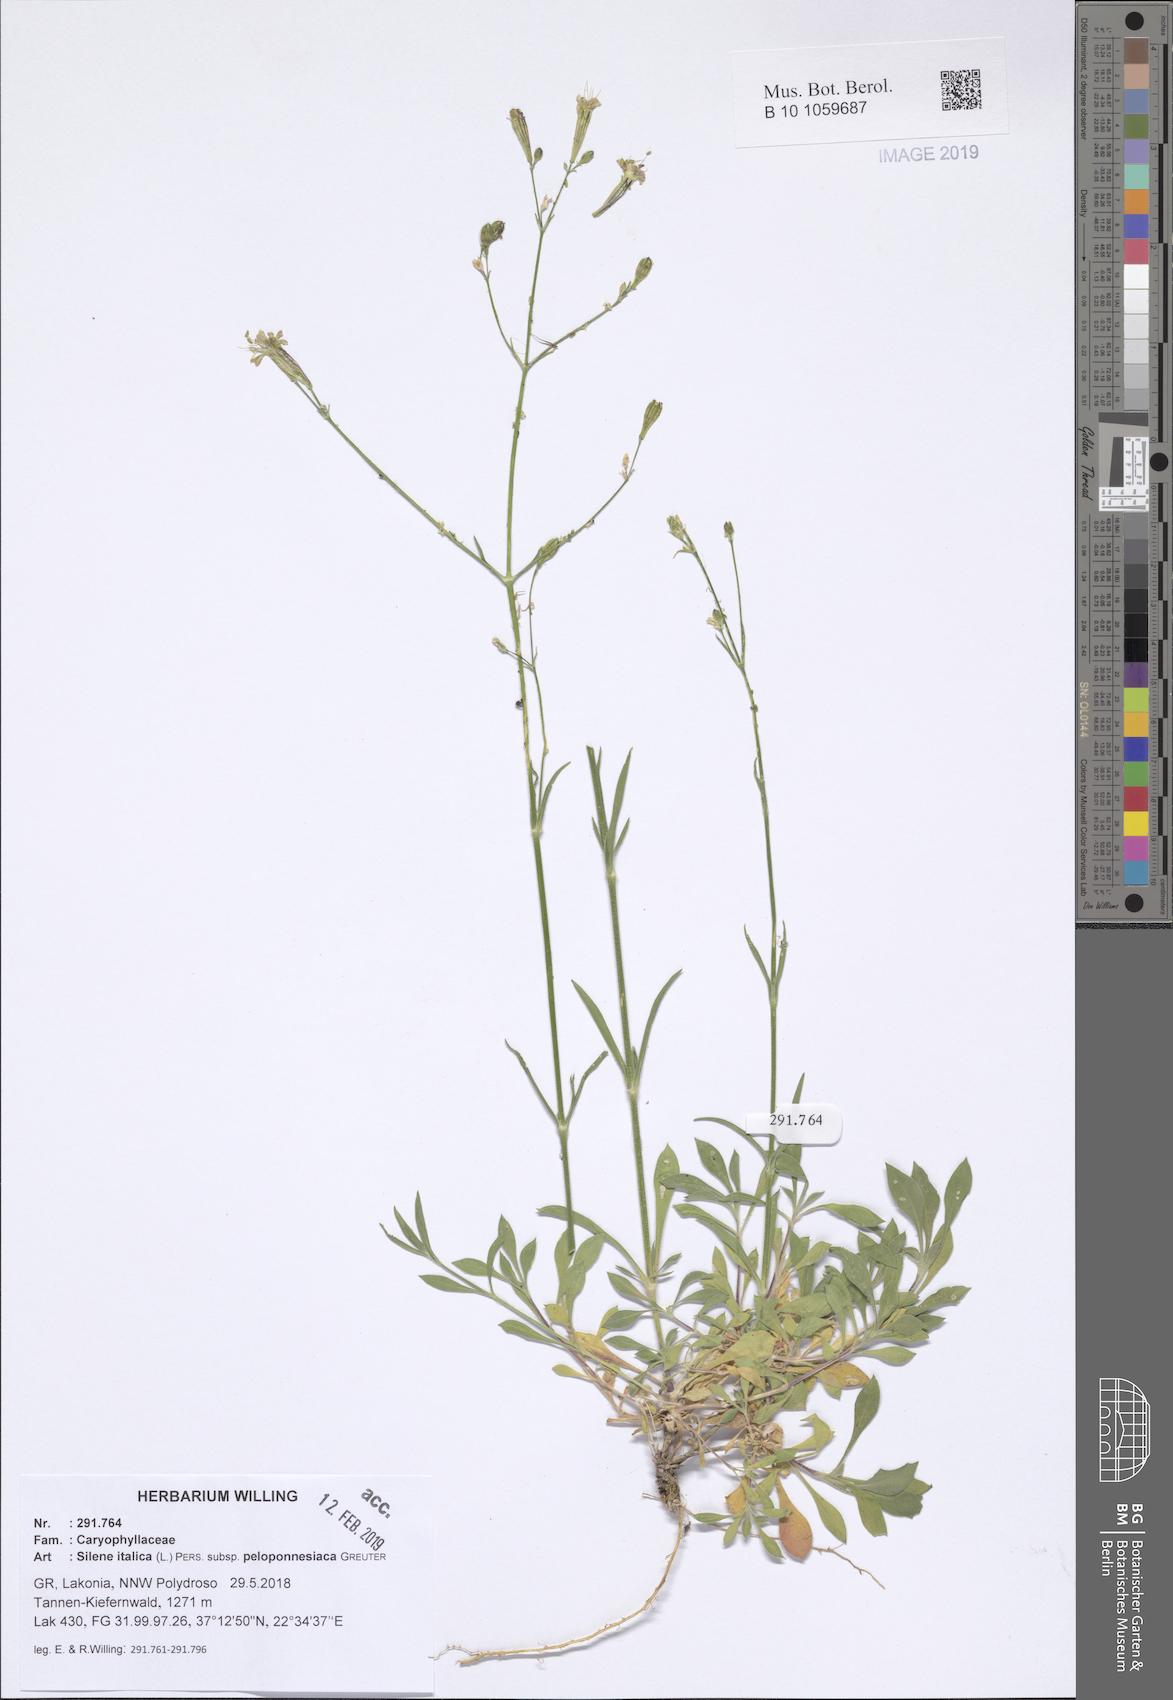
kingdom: Plantae
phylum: Tracheophyta
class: Magnoliopsida
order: Caryophyllales
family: Caryophyllaceae
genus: Silene
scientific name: Silene italica
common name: Italian catchfly
